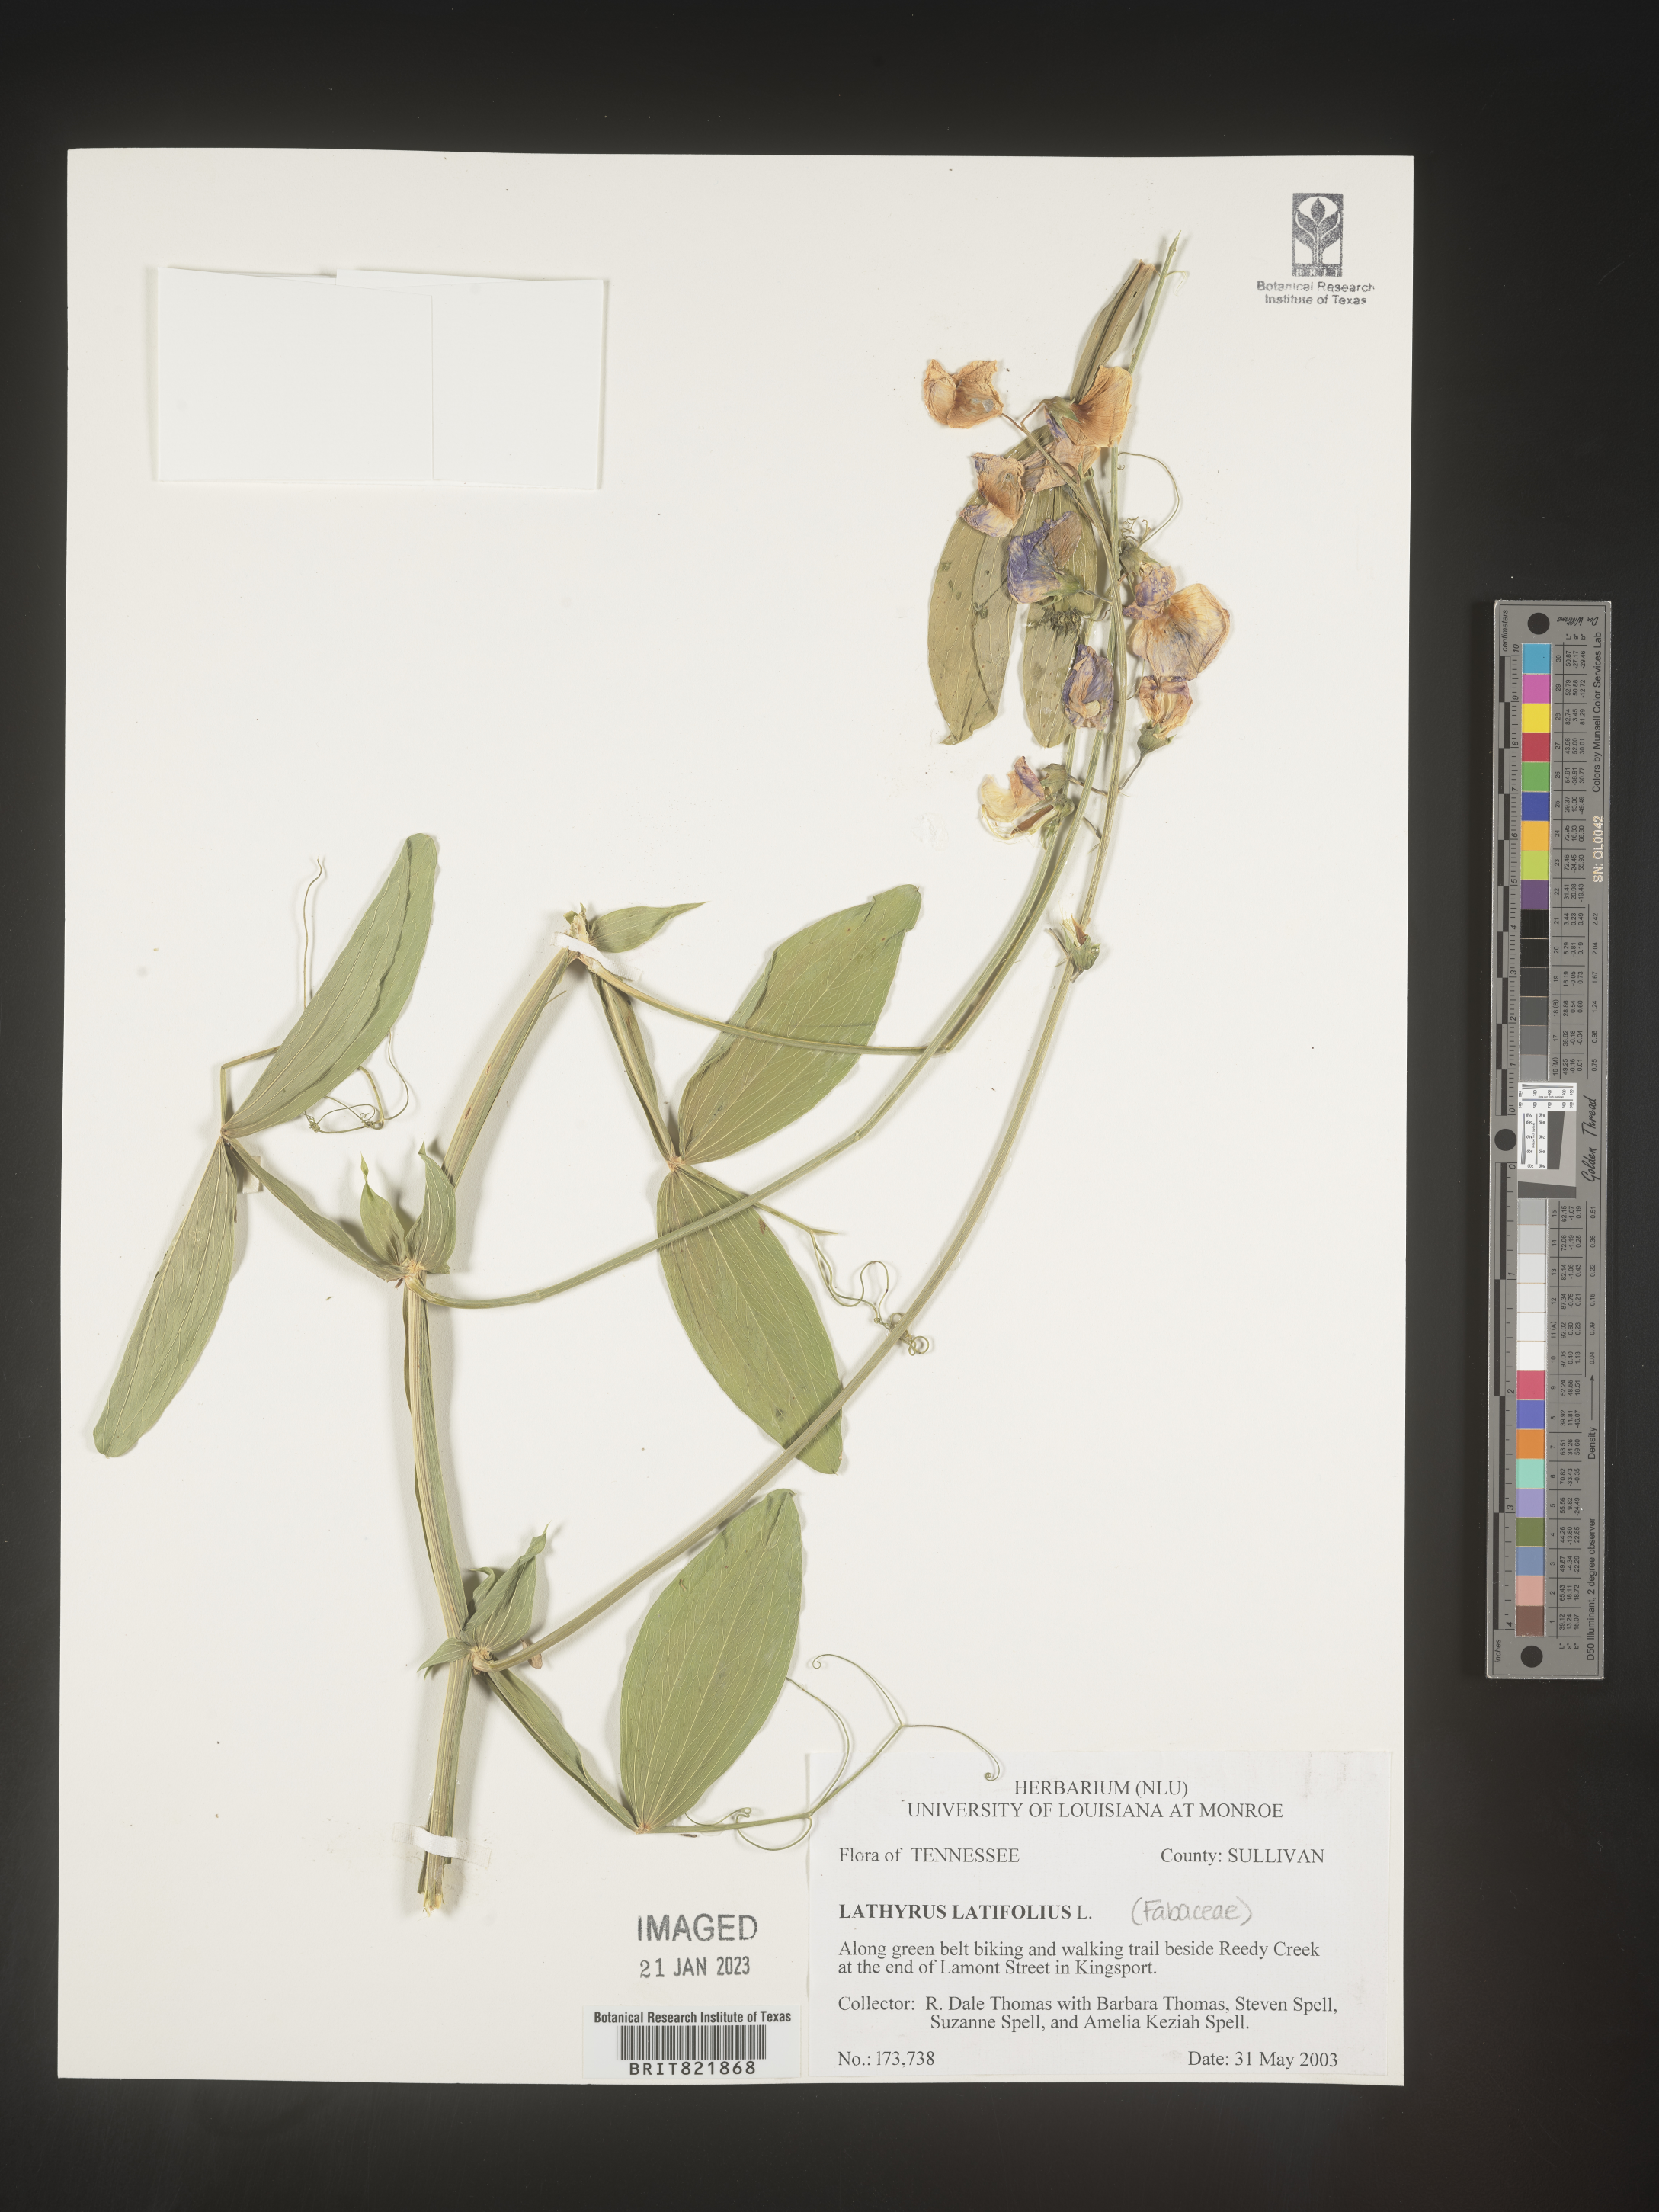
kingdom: Plantae
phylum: Tracheophyta
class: Magnoliopsida
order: Fabales
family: Fabaceae
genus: Lathyrus
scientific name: Lathyrus latifolius
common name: Perennial pea
